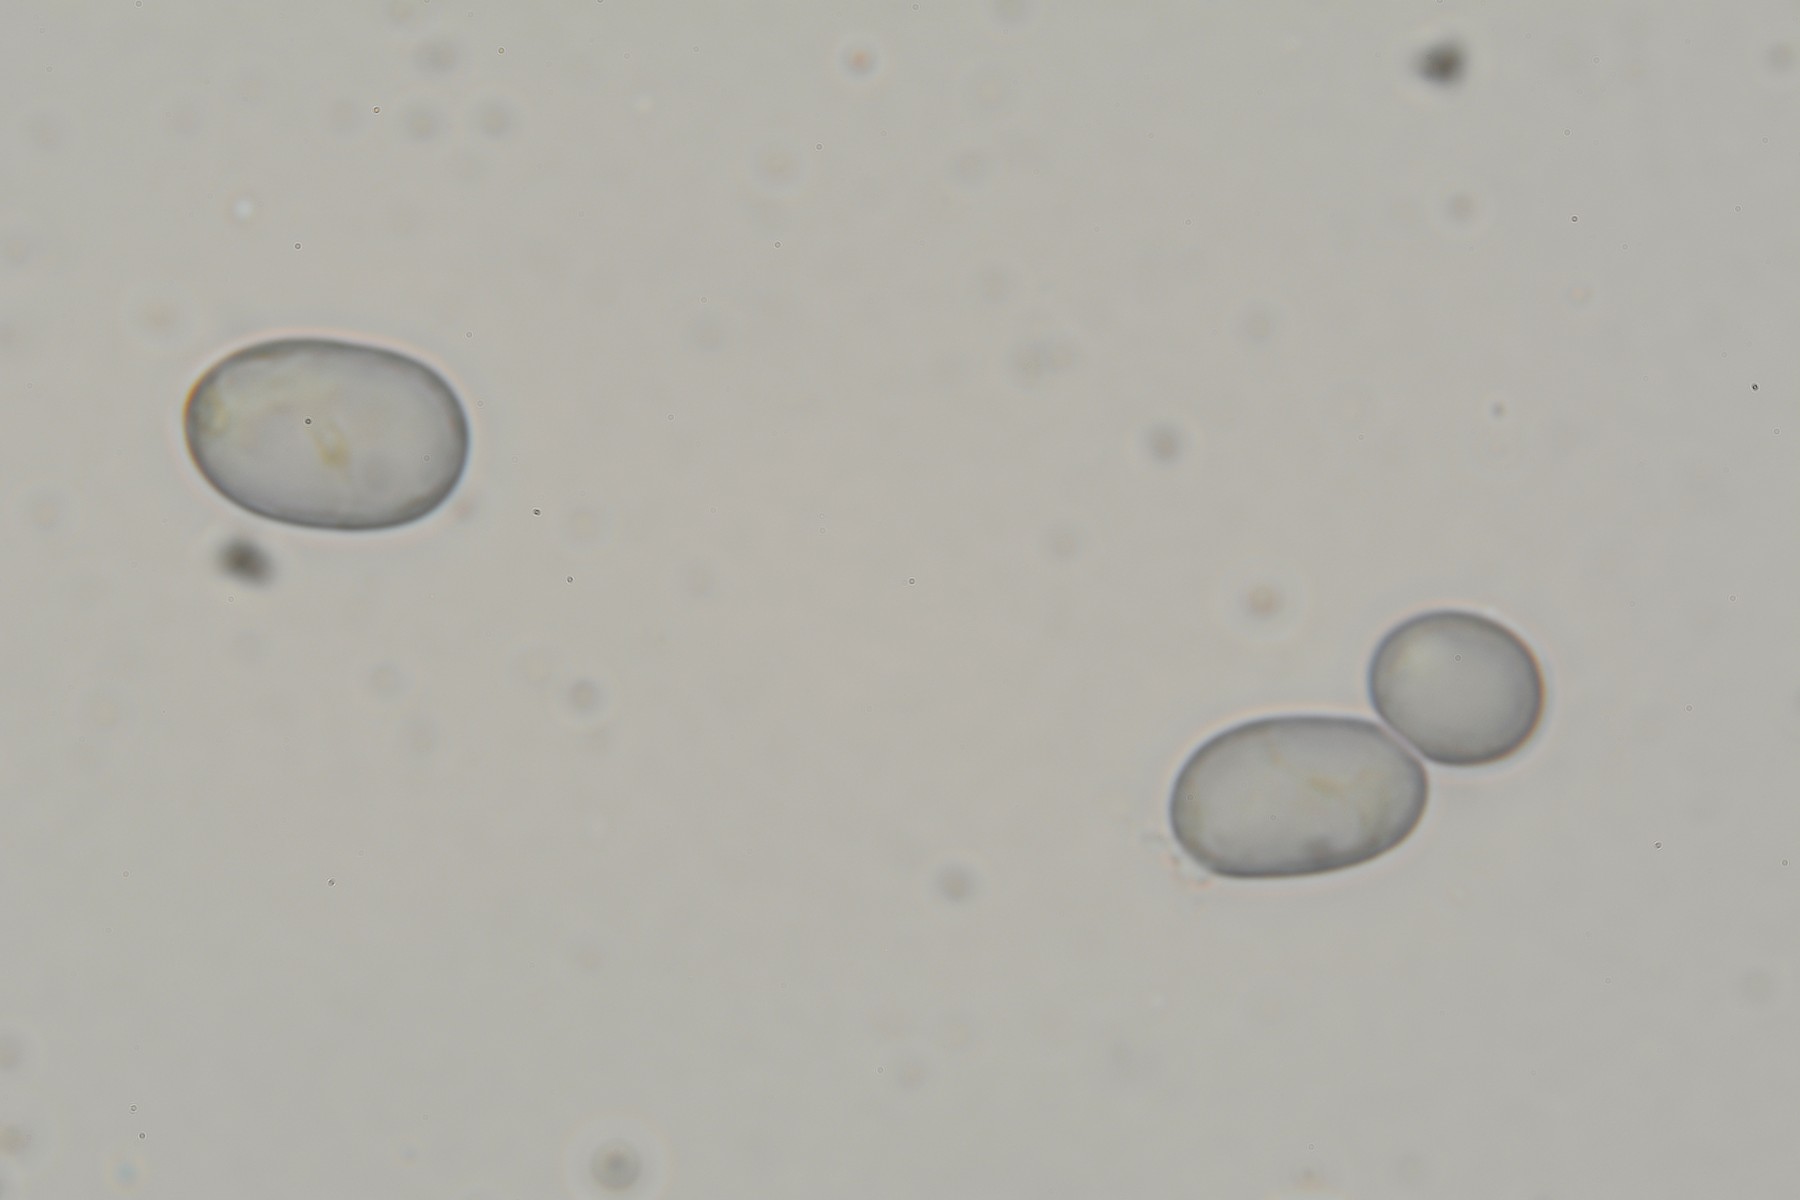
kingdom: Fungi
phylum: Basidiomycota
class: Agaricomycetes
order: Agaricales
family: Amanitaceae
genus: Amanita
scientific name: Amanita
